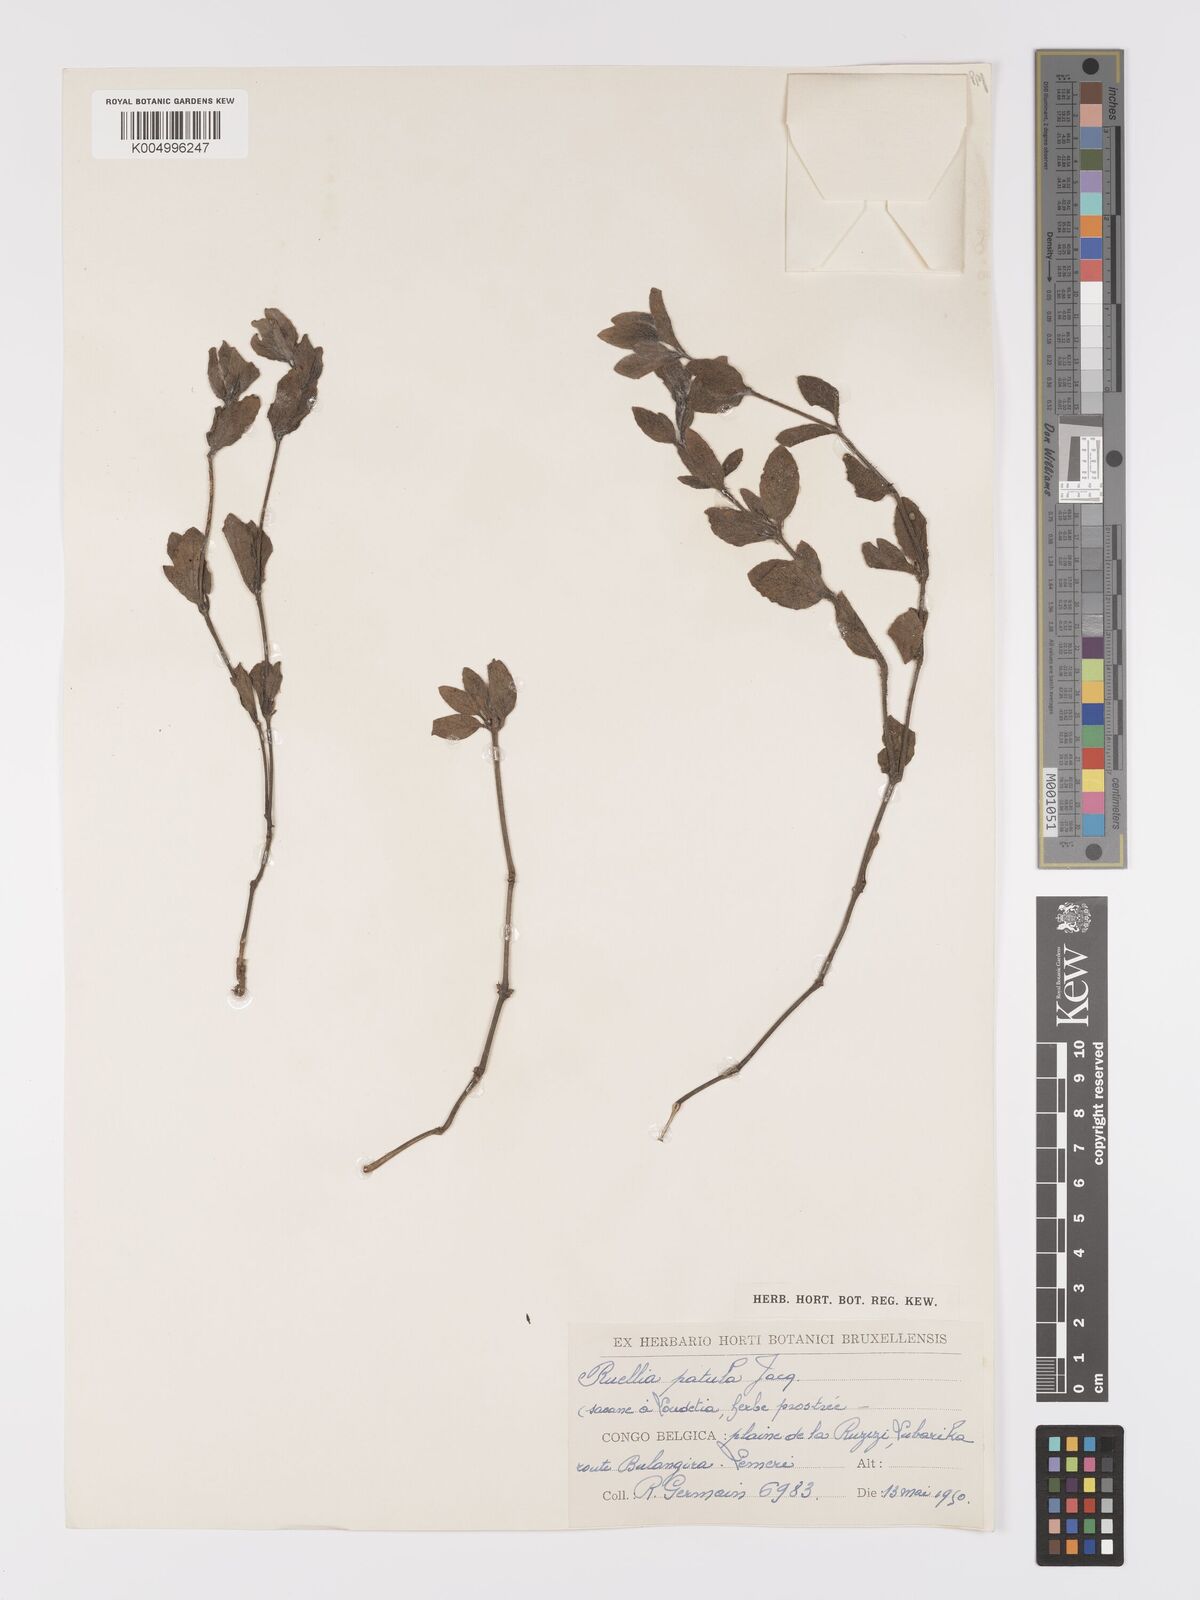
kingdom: Plantae
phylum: Tracheophyta
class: Magnoliopsida
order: Lamiales
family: Acanthaceae
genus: Ruellia
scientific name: Ruellia patula
